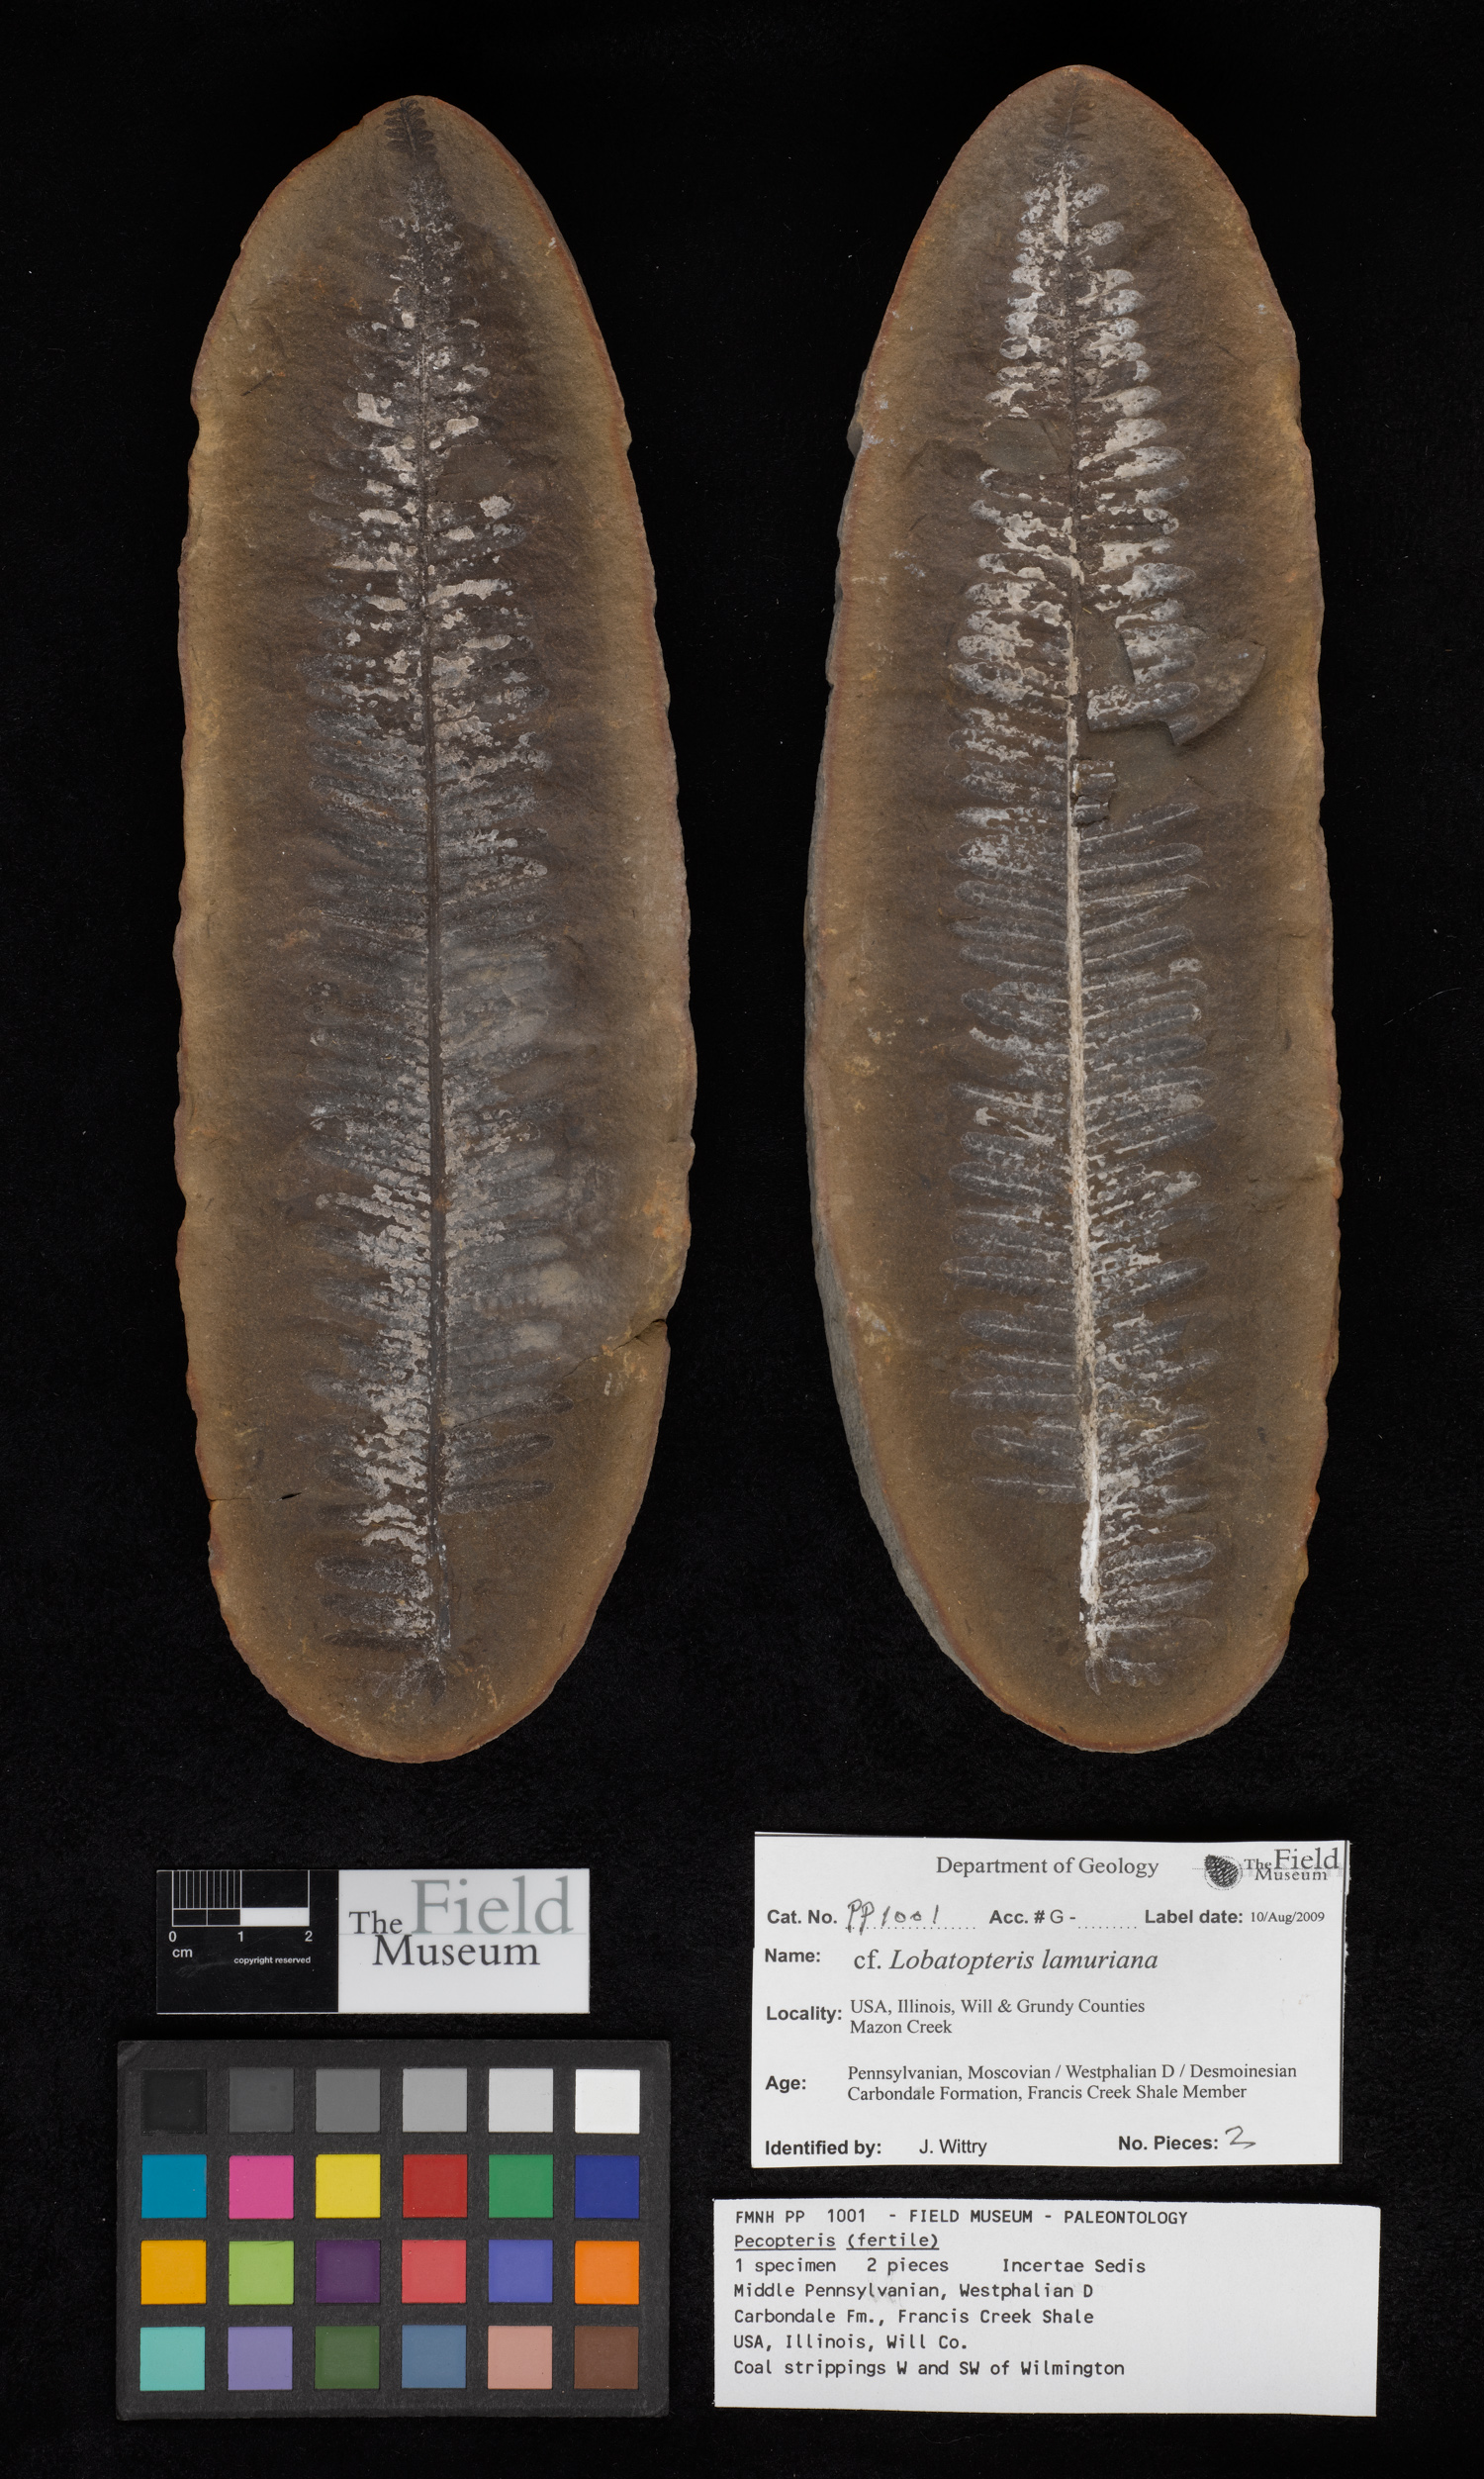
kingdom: Plantae
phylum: Tracheophyta
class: Polypodiopsida
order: Marattiales
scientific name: Marattiales
